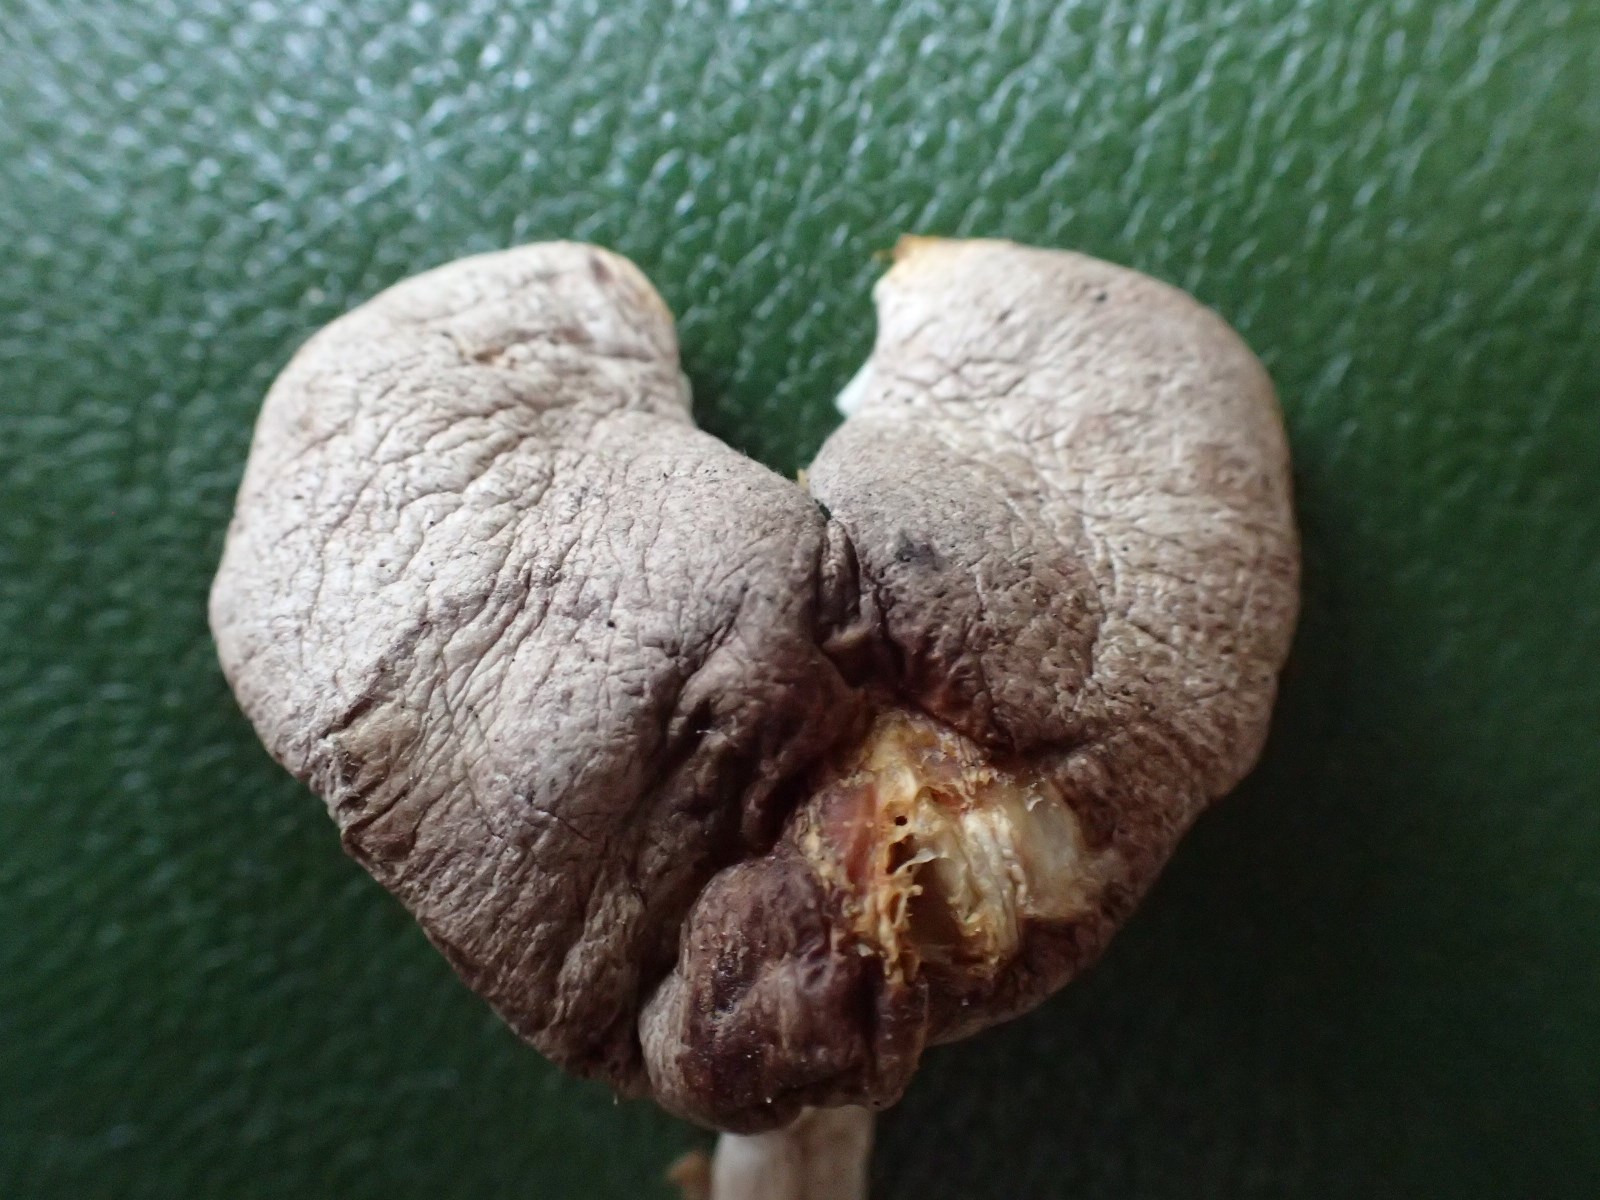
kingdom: Fungi
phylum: Basidiomycota
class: Agaricomycetes
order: Agaricales
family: Tricholomataceae
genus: Tricholoma
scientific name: Tricholoma terreum
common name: jordfarvet ridderhat
